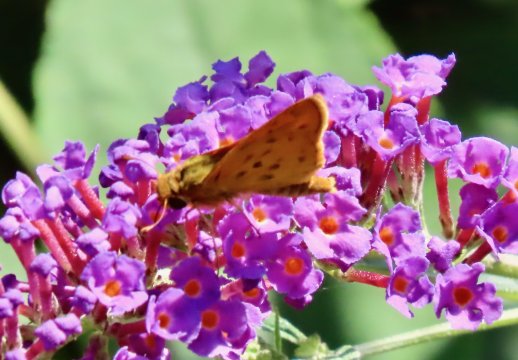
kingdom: Animalia
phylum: Arthropoda
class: Insecta
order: Lepidoptera
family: Hesperiidae
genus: Hylephila
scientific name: Hylephila phyleus
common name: Fiery Skipper
